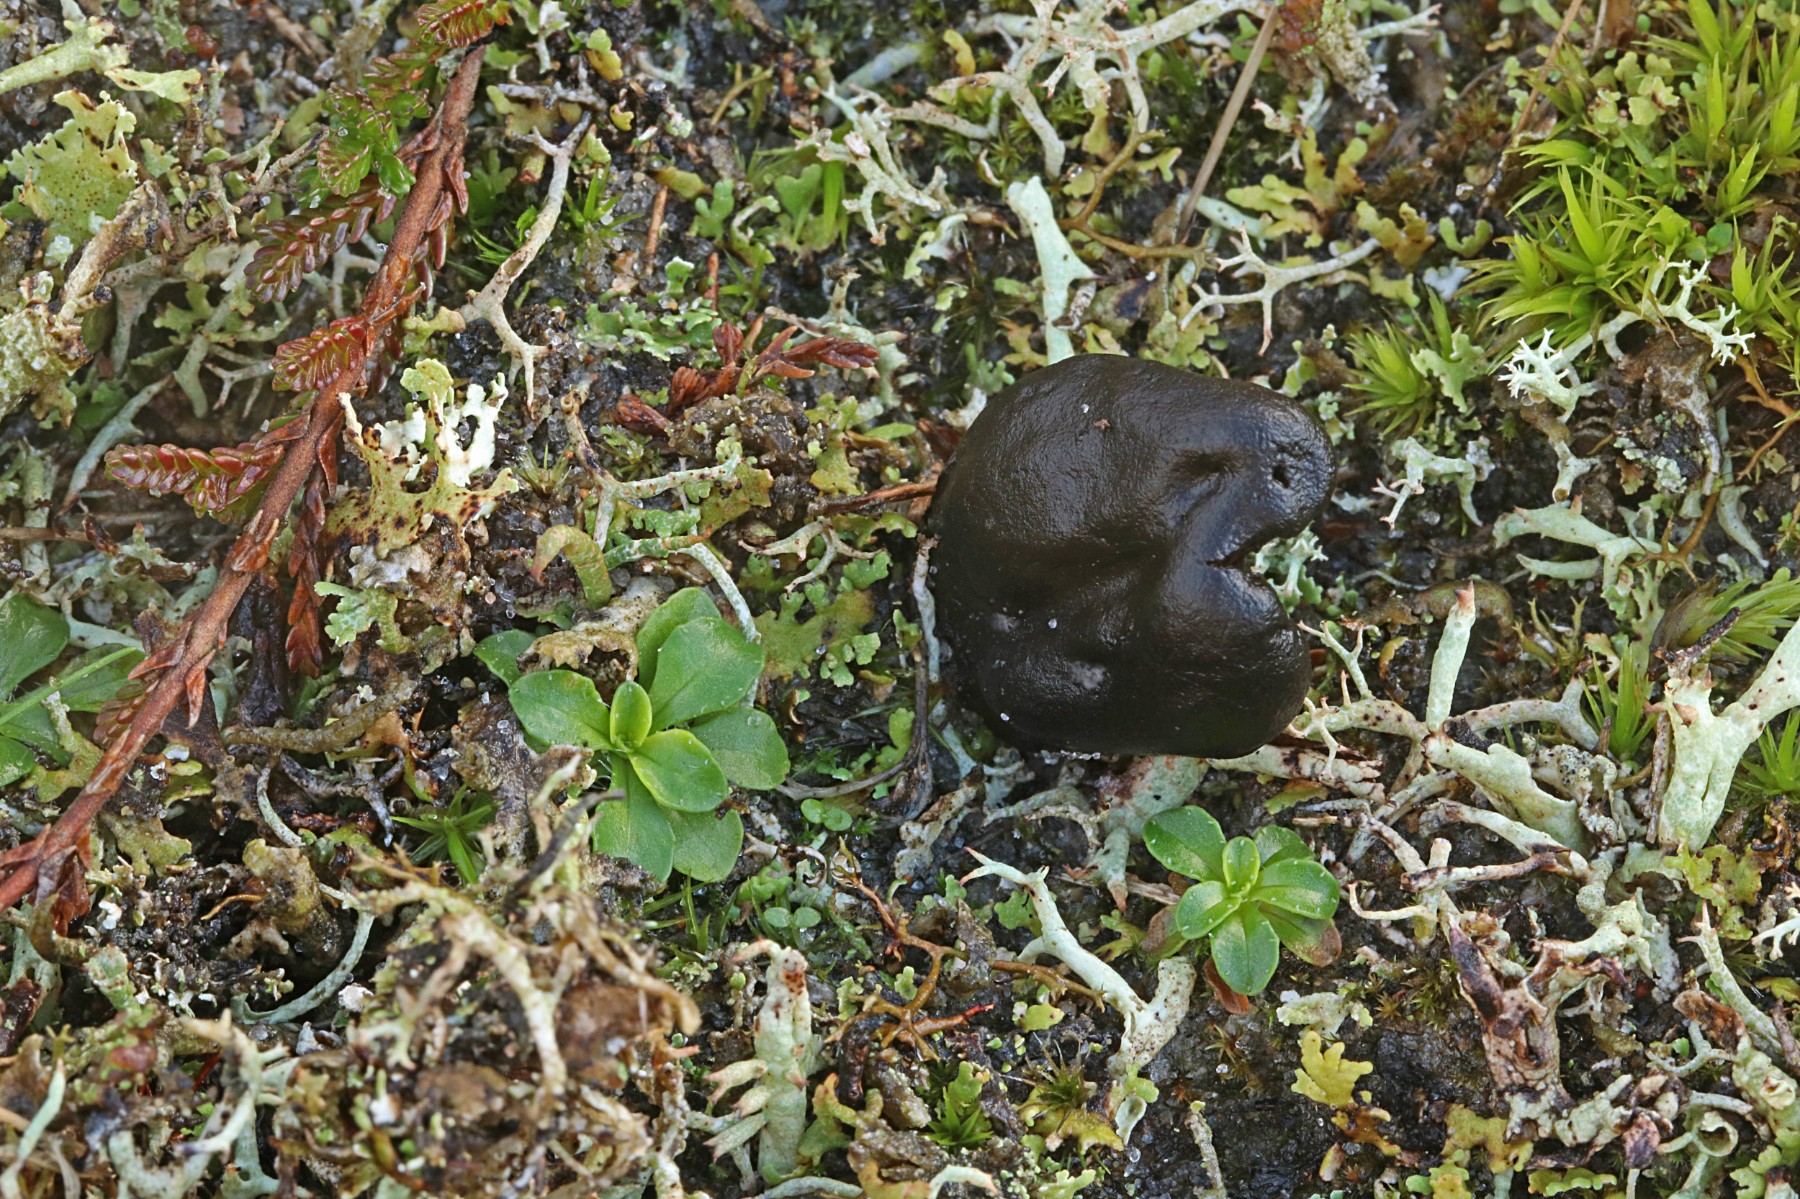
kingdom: Fungi
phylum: Ascomycota
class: Geoglossomycetes
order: Geoglossales
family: Geoglossaceae
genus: Sabuloglossum
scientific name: Sabuloglossum arenarium
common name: klit-jordtunge
